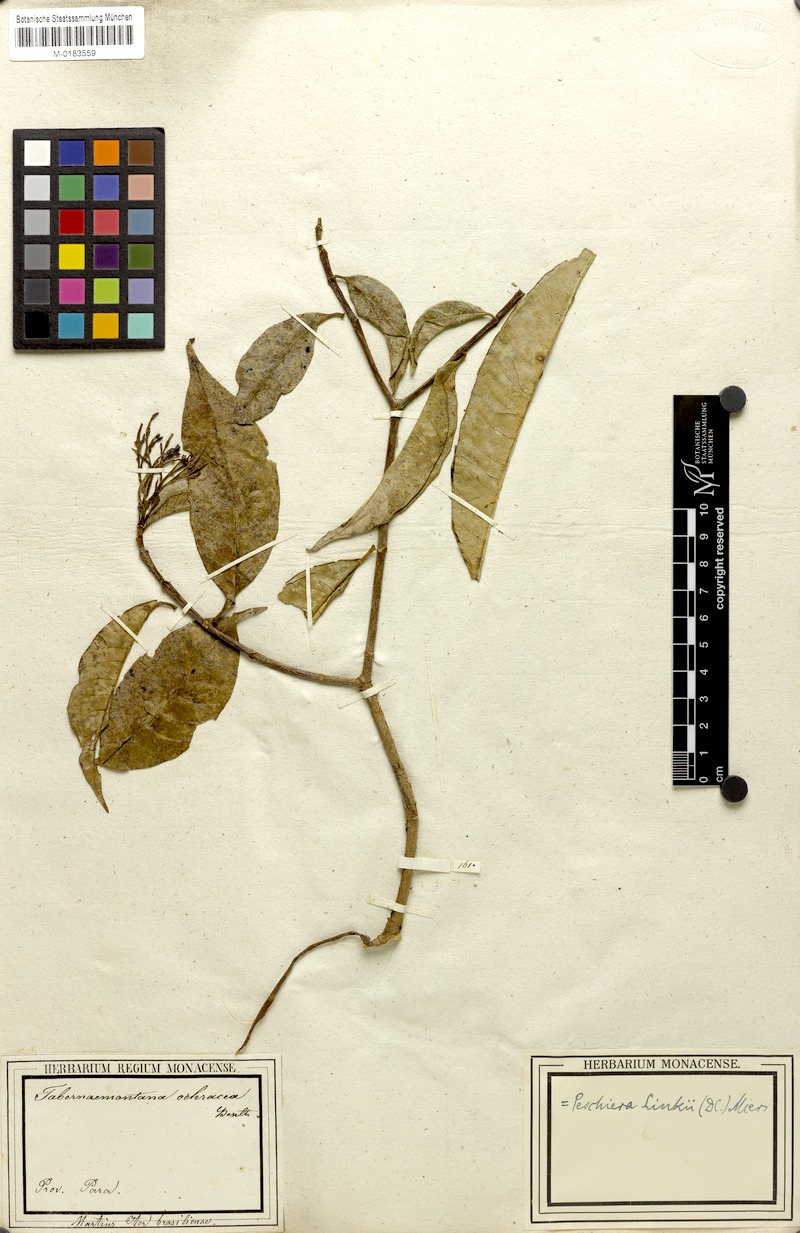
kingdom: Plantae
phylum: Tracheophyta
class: Magnoliopsida
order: Gentianales
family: Apocynaceae
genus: Tabernaemontana
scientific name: Tabernaemontana linkii
